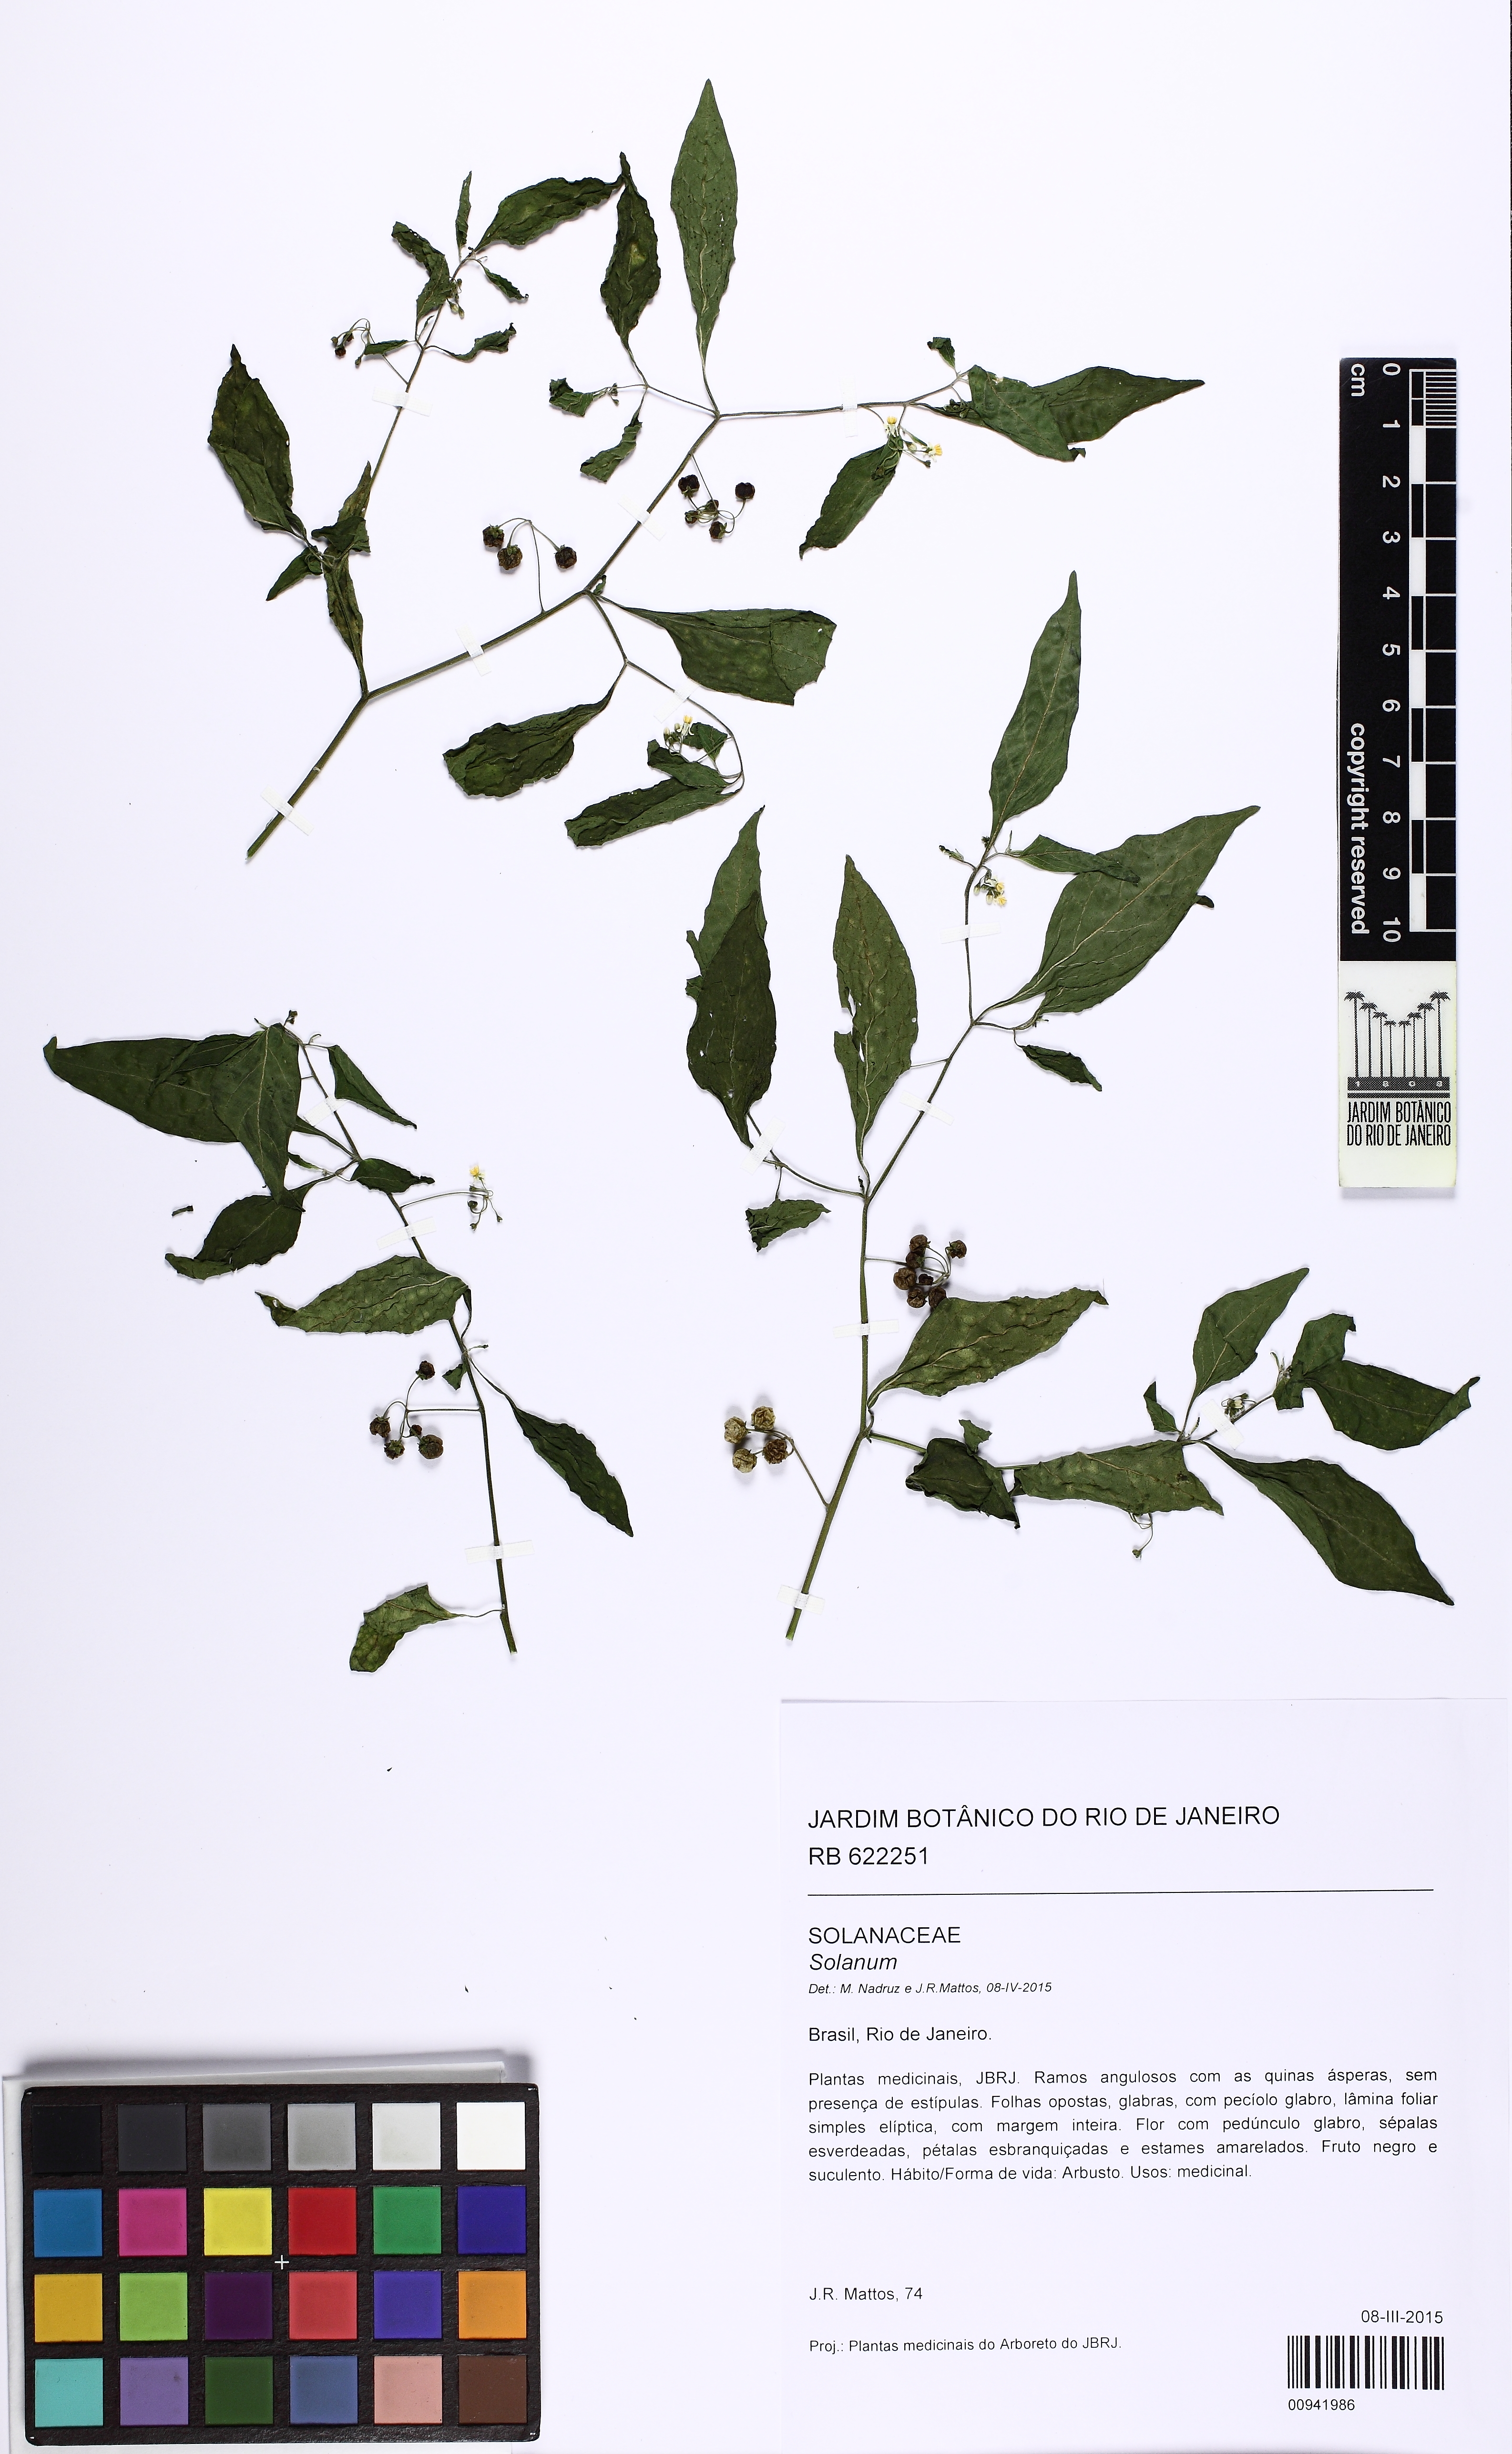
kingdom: Plantae
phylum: Tracheophyta
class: Magnoliopsida
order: Solanales
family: Solanaceae
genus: Solanum
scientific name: Solanum americanum
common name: American black nightshade
